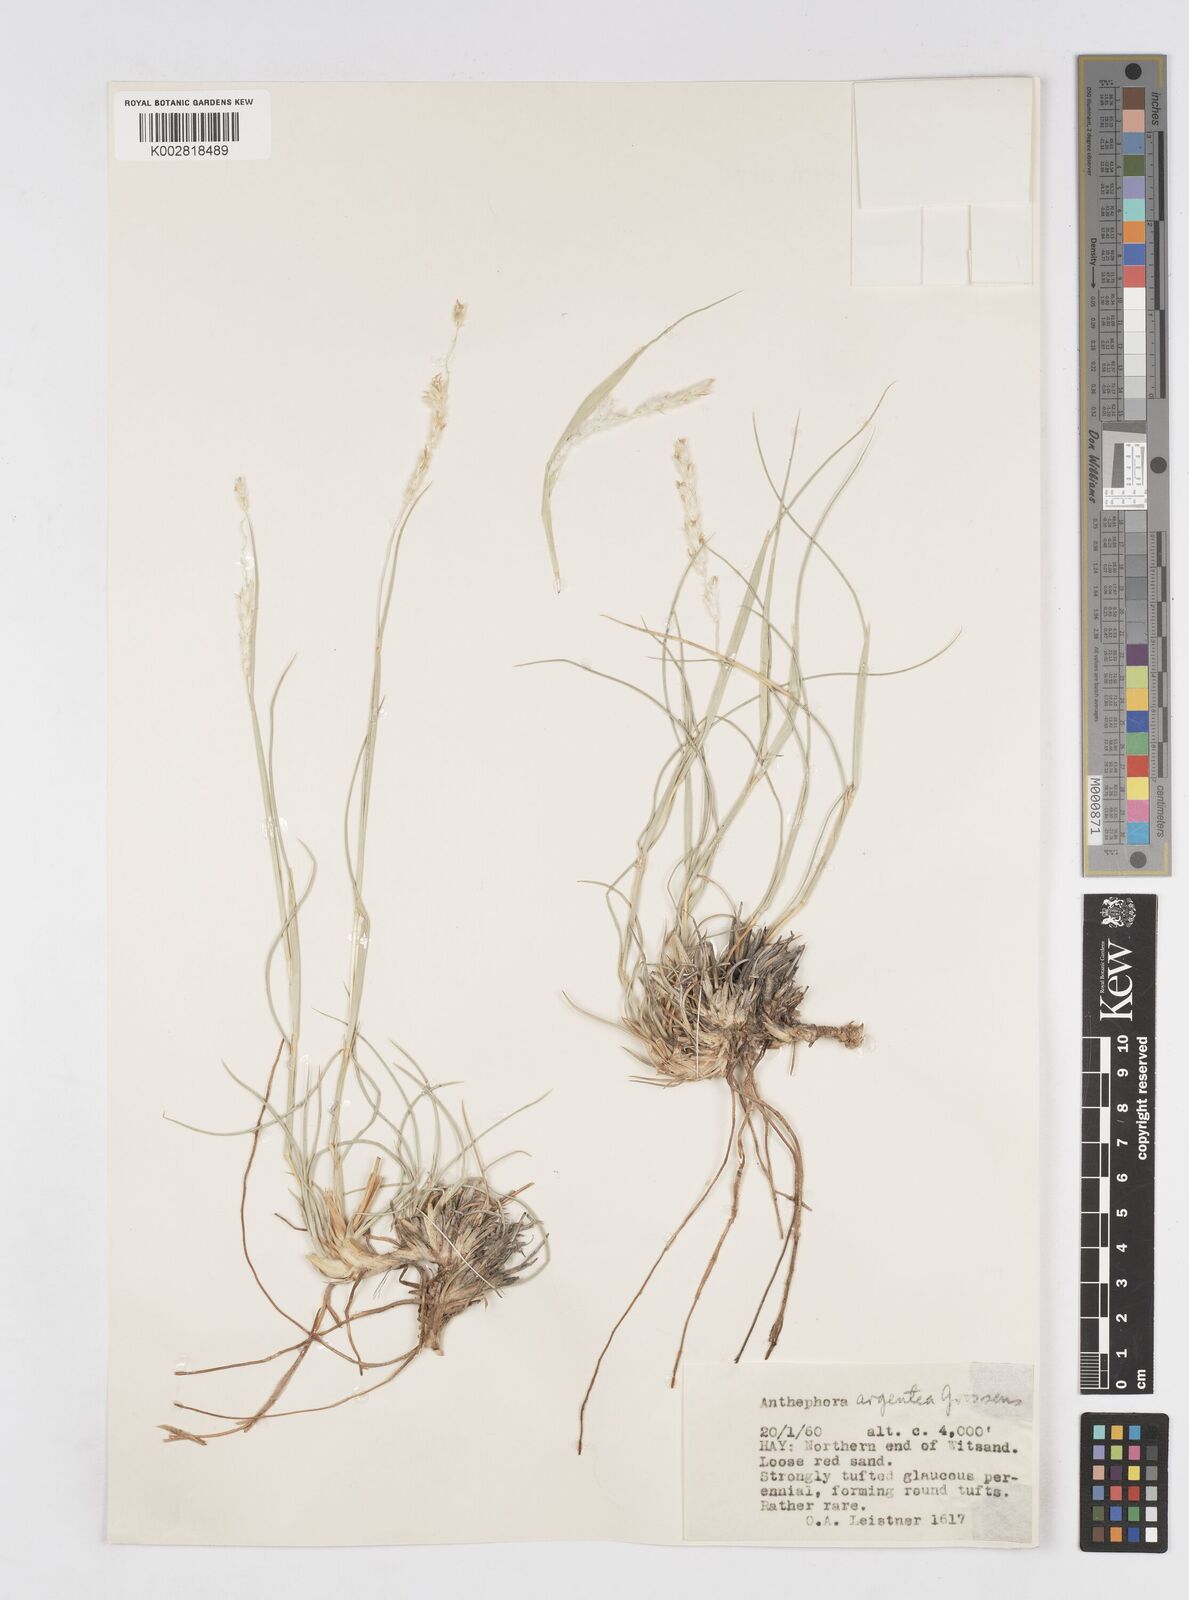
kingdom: Plantae
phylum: Tracheophyta
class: Liliopsida
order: Poales
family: Poaceae
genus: Anthephora
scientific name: Anthephora argentea
